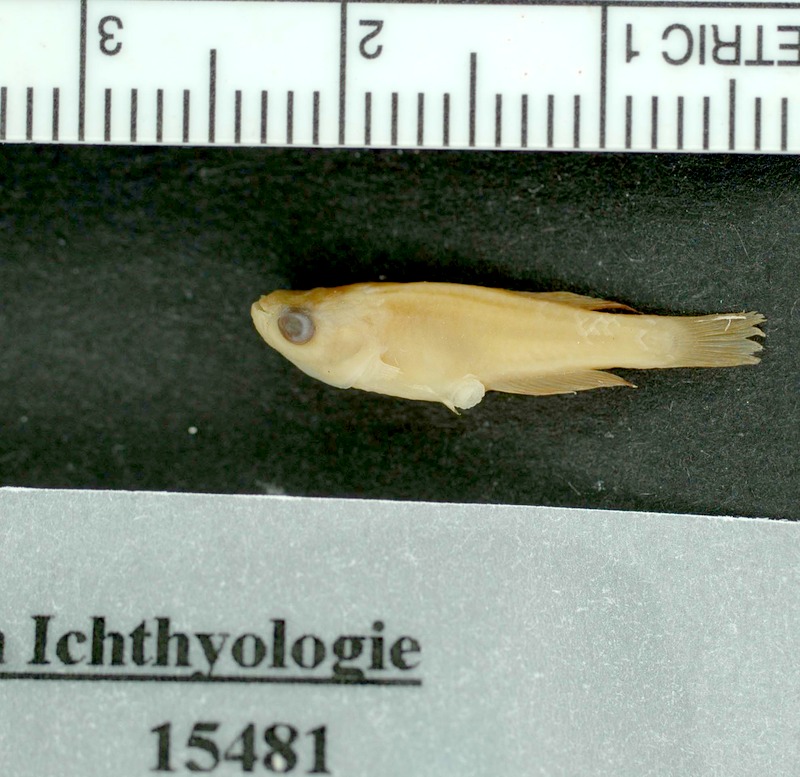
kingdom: Animalia
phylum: Chordata
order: Cyprinodontiformes
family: Rivulidae
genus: Notholebias
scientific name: Notholebias minimus
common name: Minute pearlfish
